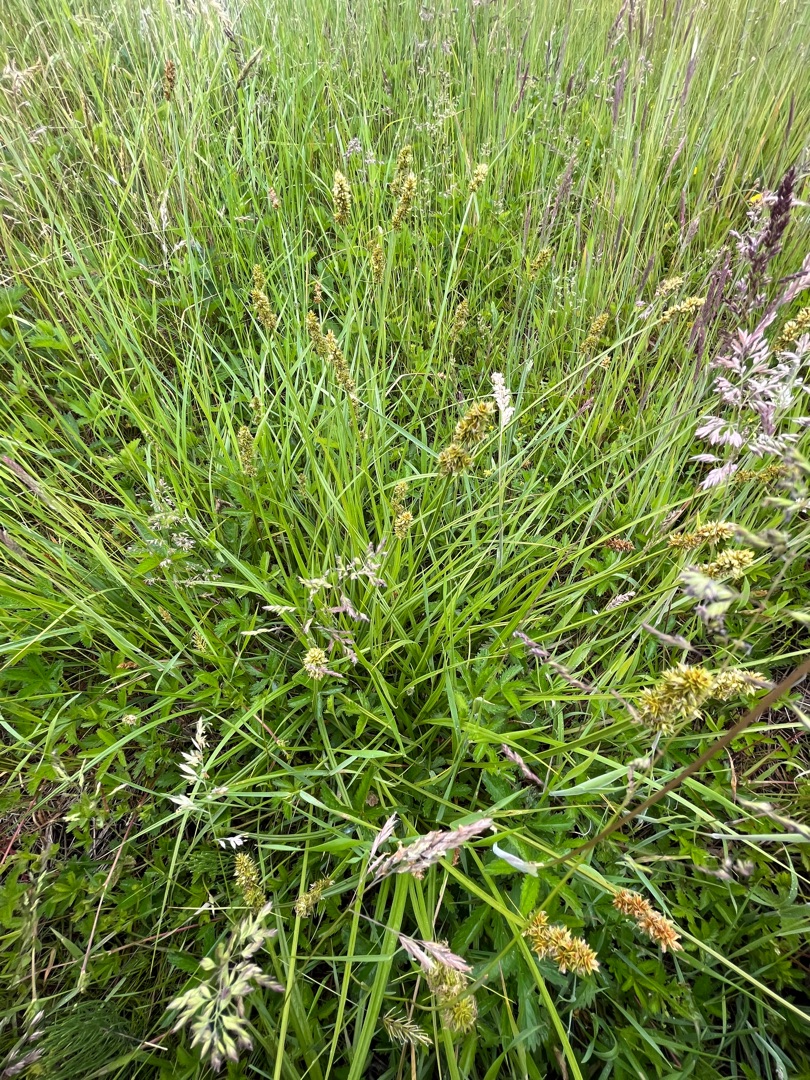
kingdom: Plantae
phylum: Tracheophyta
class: Liliopsida
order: Poales
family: Cyperaceae
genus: Carex
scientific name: Carex otrubae
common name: Sylt-star
